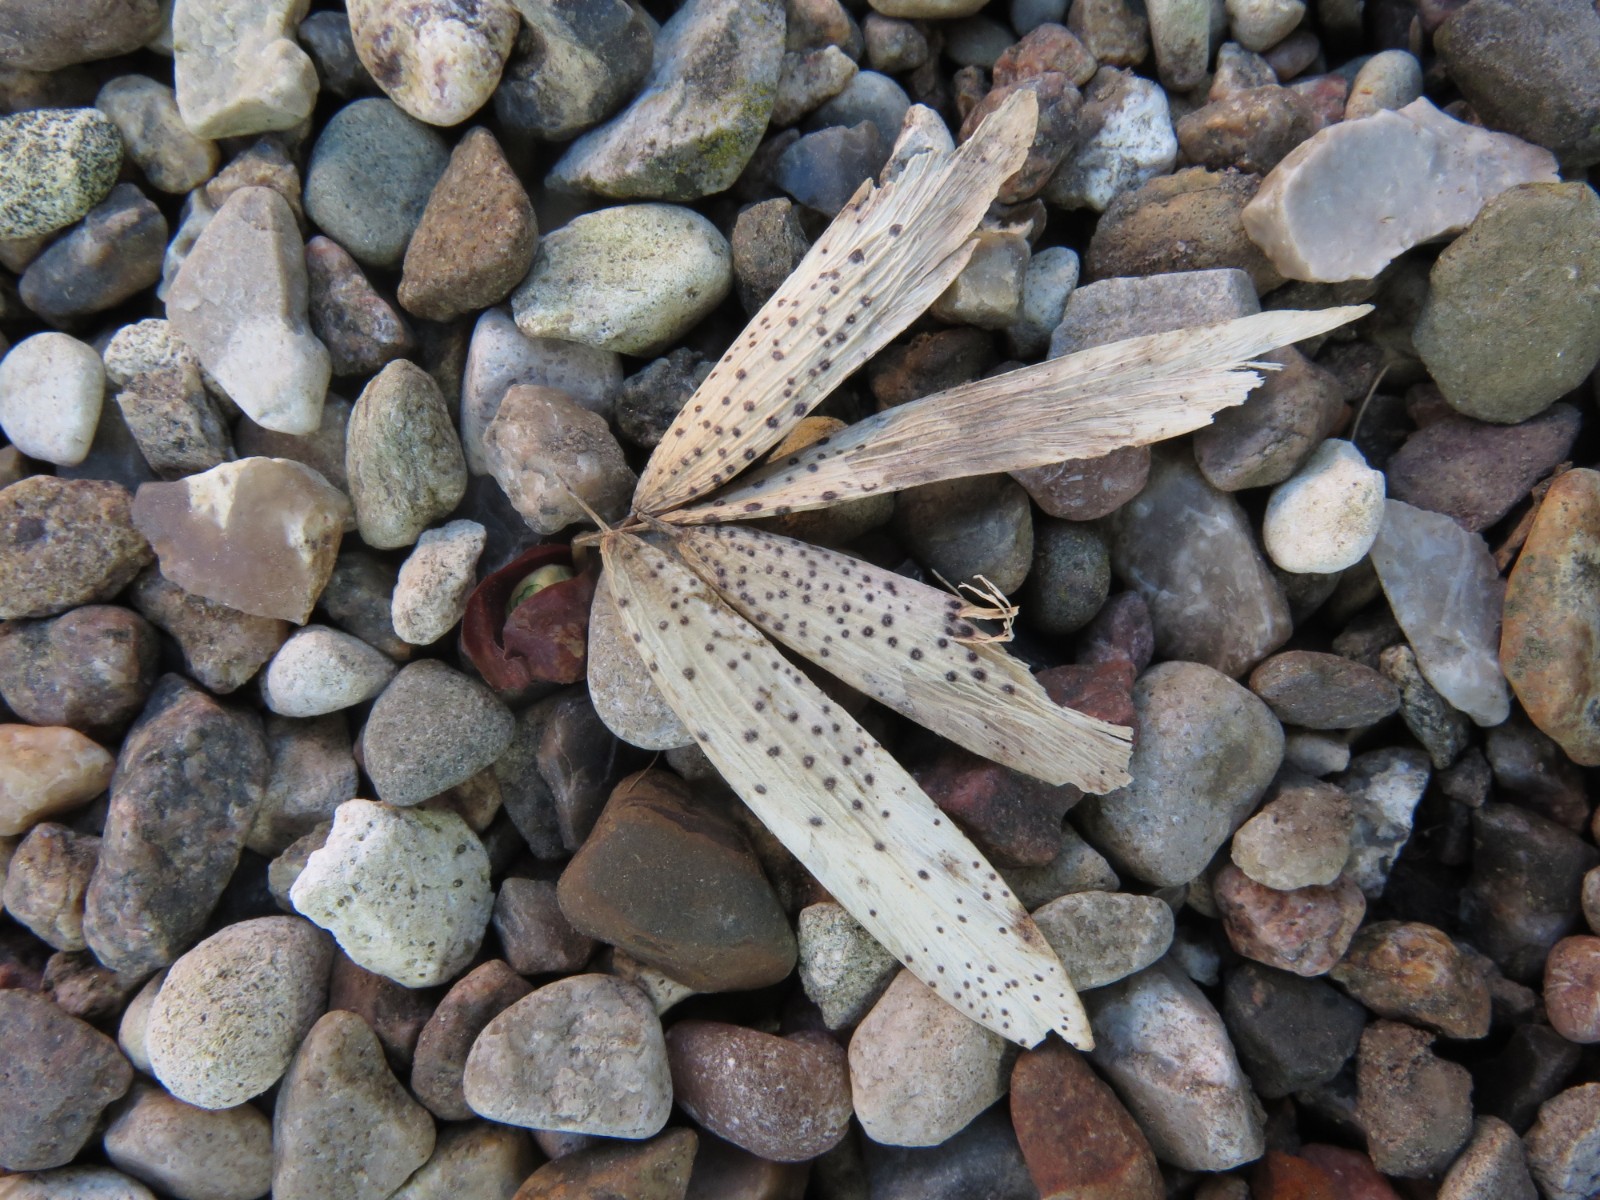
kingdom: Fungi
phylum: Ascomycota
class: Sordariomycetes
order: Diaporthales
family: Diaporthaceae
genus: Diaporthe
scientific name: Diaporthe samaricola
